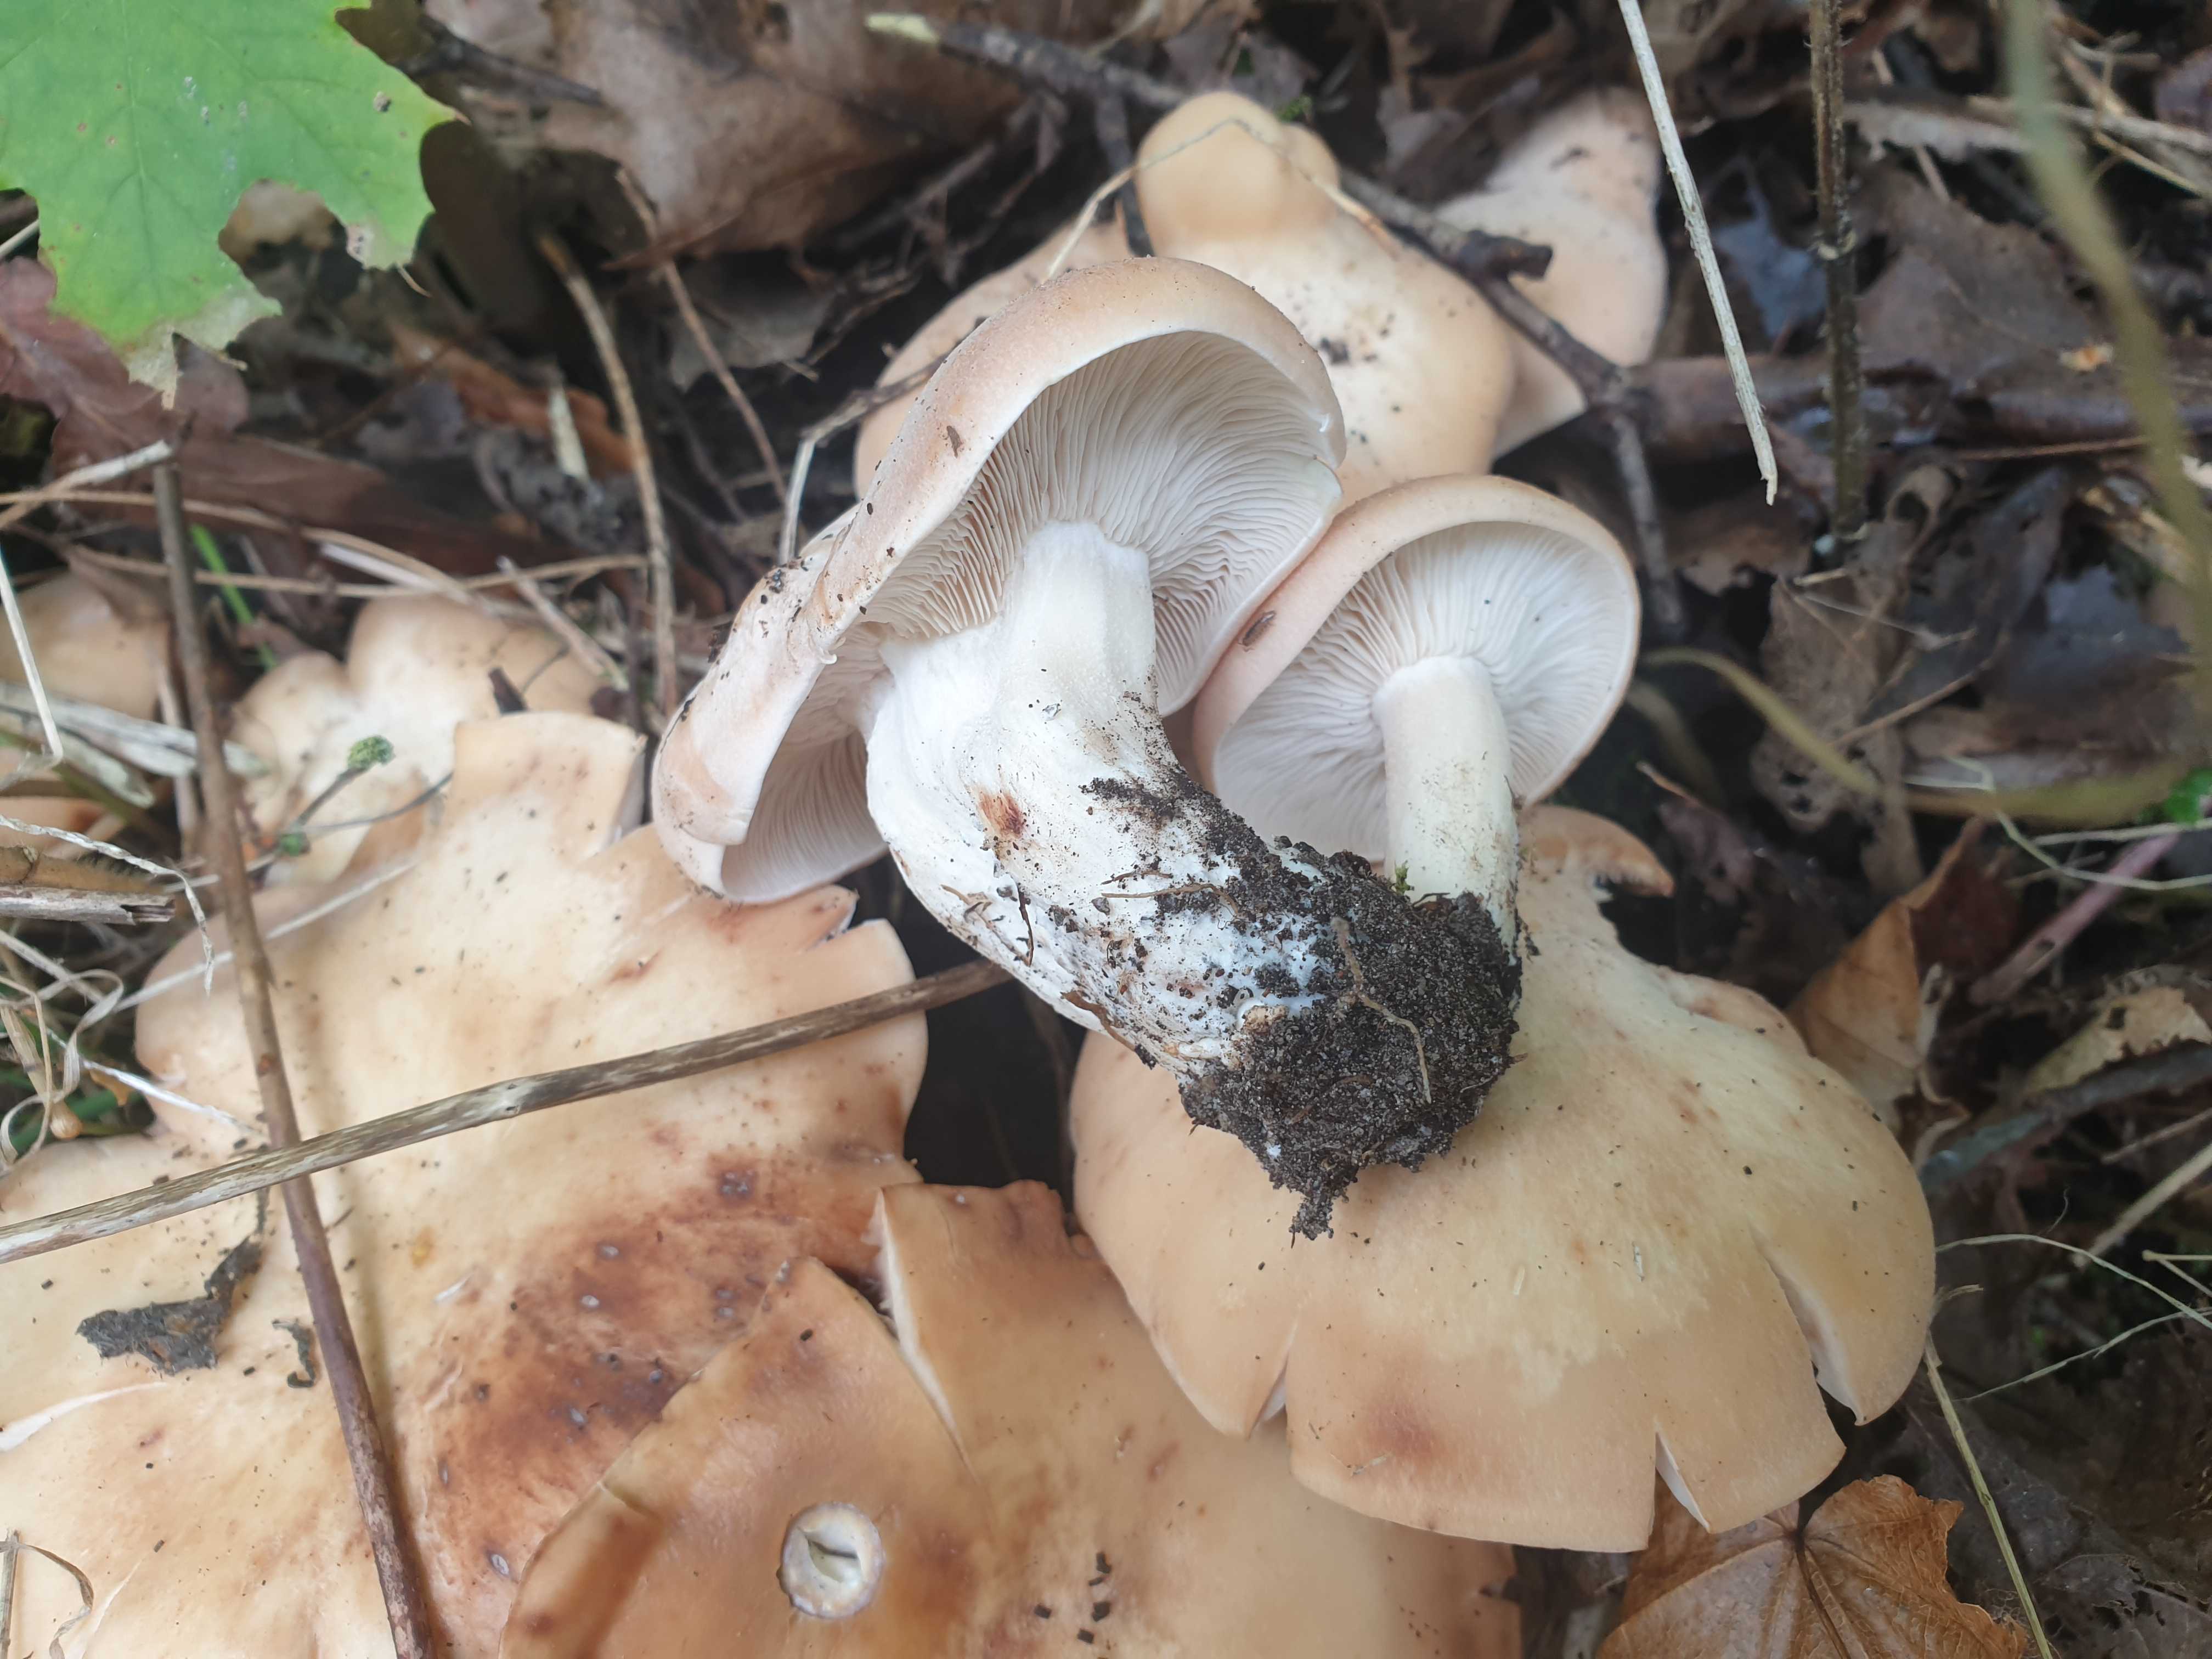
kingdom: Fungi
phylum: Basidiomycota
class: Agaricomycetes
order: Agaricales
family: Entolomataceae
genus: Clitopilus
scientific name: Clitopilus geminus
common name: kødfarvet troldhat
